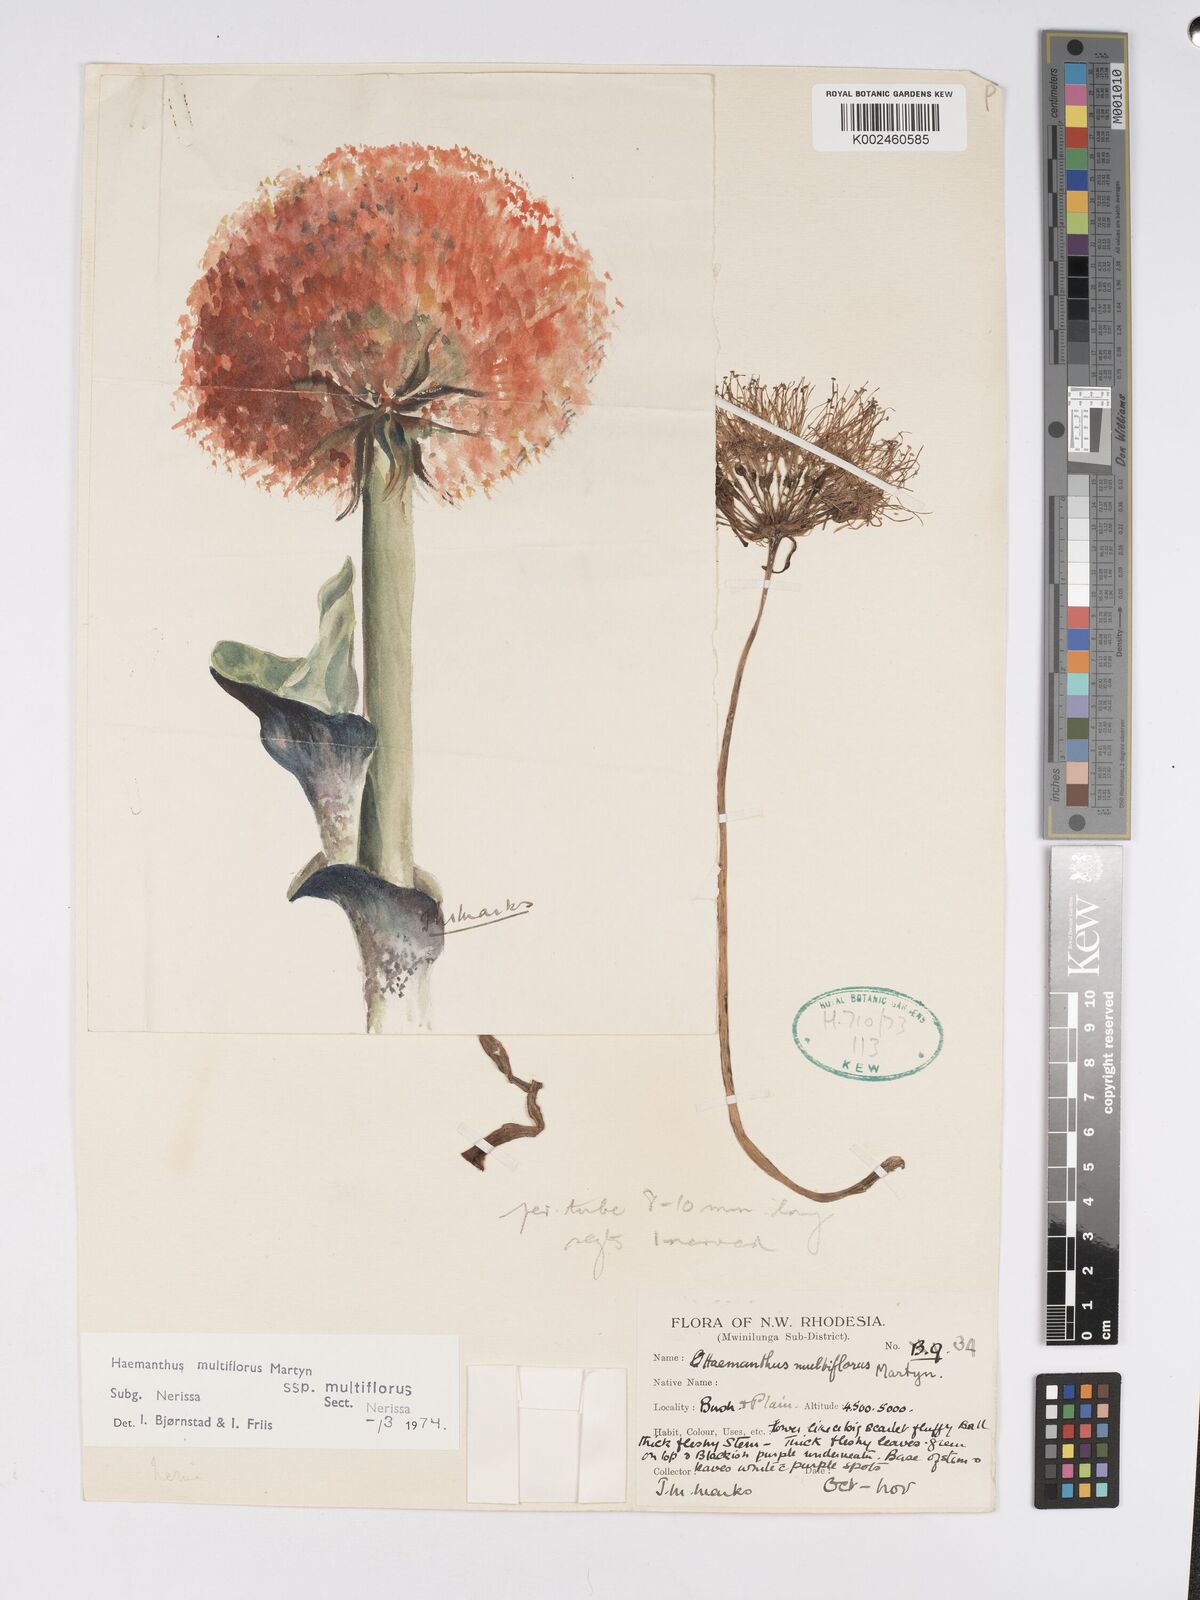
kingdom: Plantae
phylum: Tracheophyta
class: Liliopsida
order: Asparagales
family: Amaryllidaceae
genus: Scadoxus
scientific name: Scadoxus multiflorus
